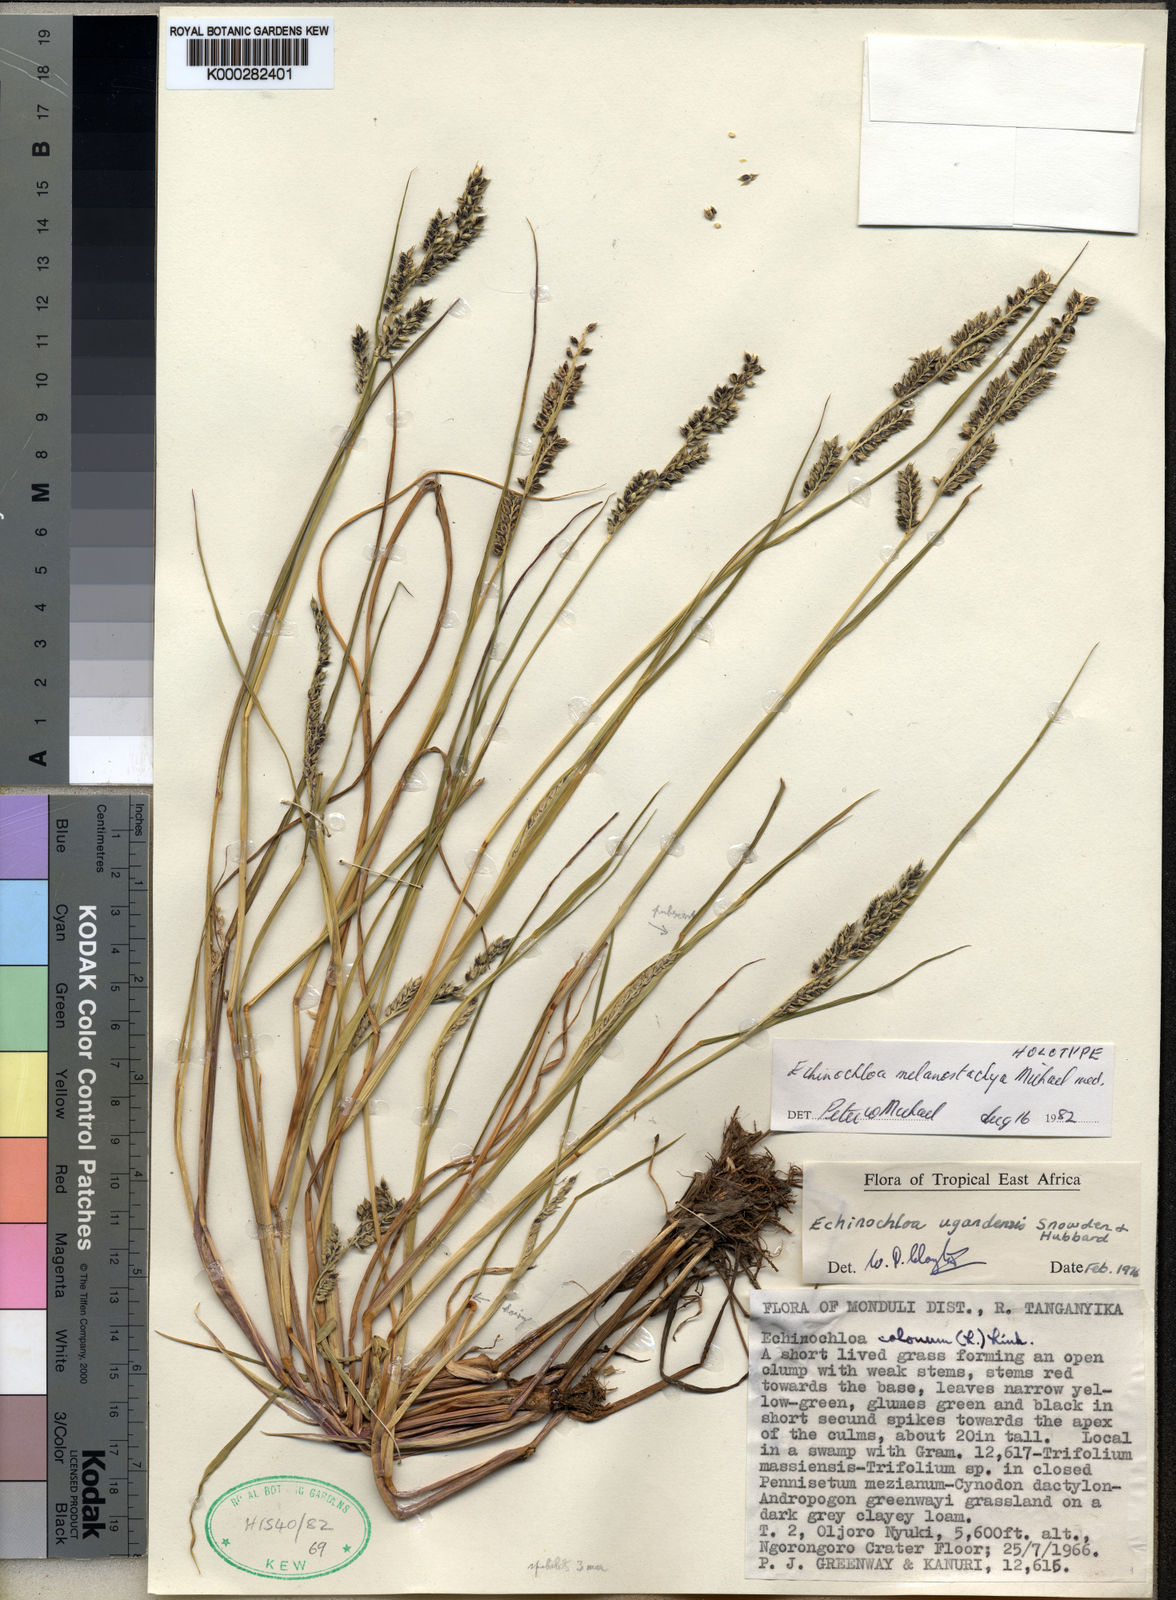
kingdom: Plantae
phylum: Tracheophyta
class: Liliopsida
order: Poales
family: Poaceae
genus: Echinochloa
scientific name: Echinochloa ugandensis
